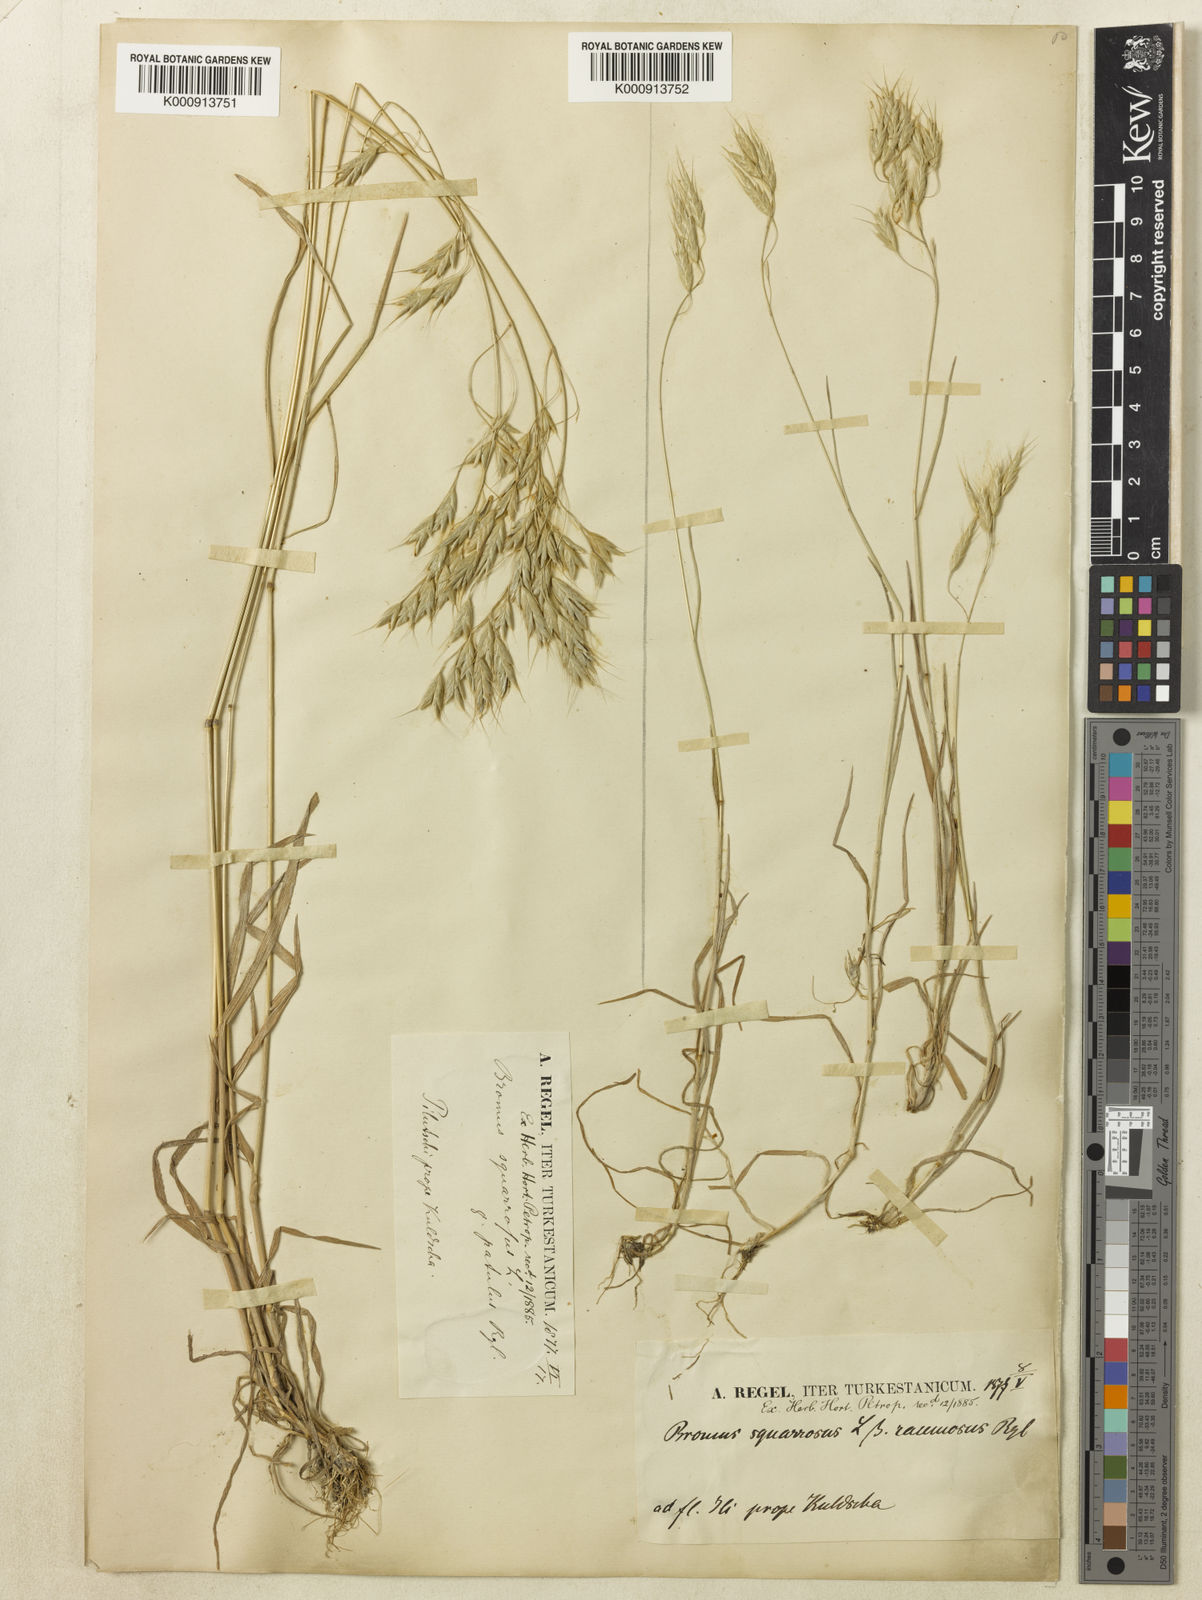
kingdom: Plantae
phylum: Tracheophyta
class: Liliopsida
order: Poales
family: Poaceae
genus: Bromus
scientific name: Bromus squarrosus
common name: Corn brome
